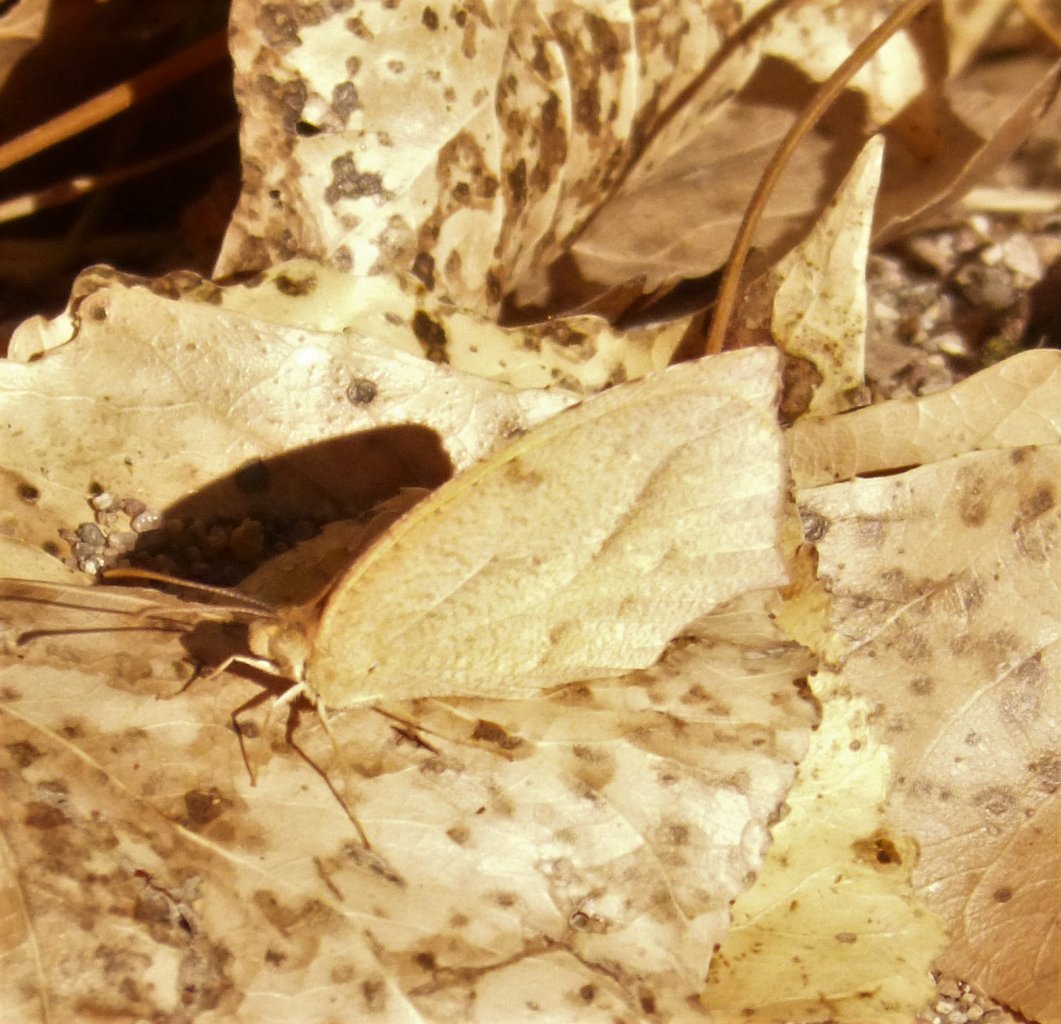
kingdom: Animalia
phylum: Arthropoda
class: Insecta
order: Lepidoptera
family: Pieridae
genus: Pyrisitia
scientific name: Pyrisitia proterpia
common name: Tailed Orange
